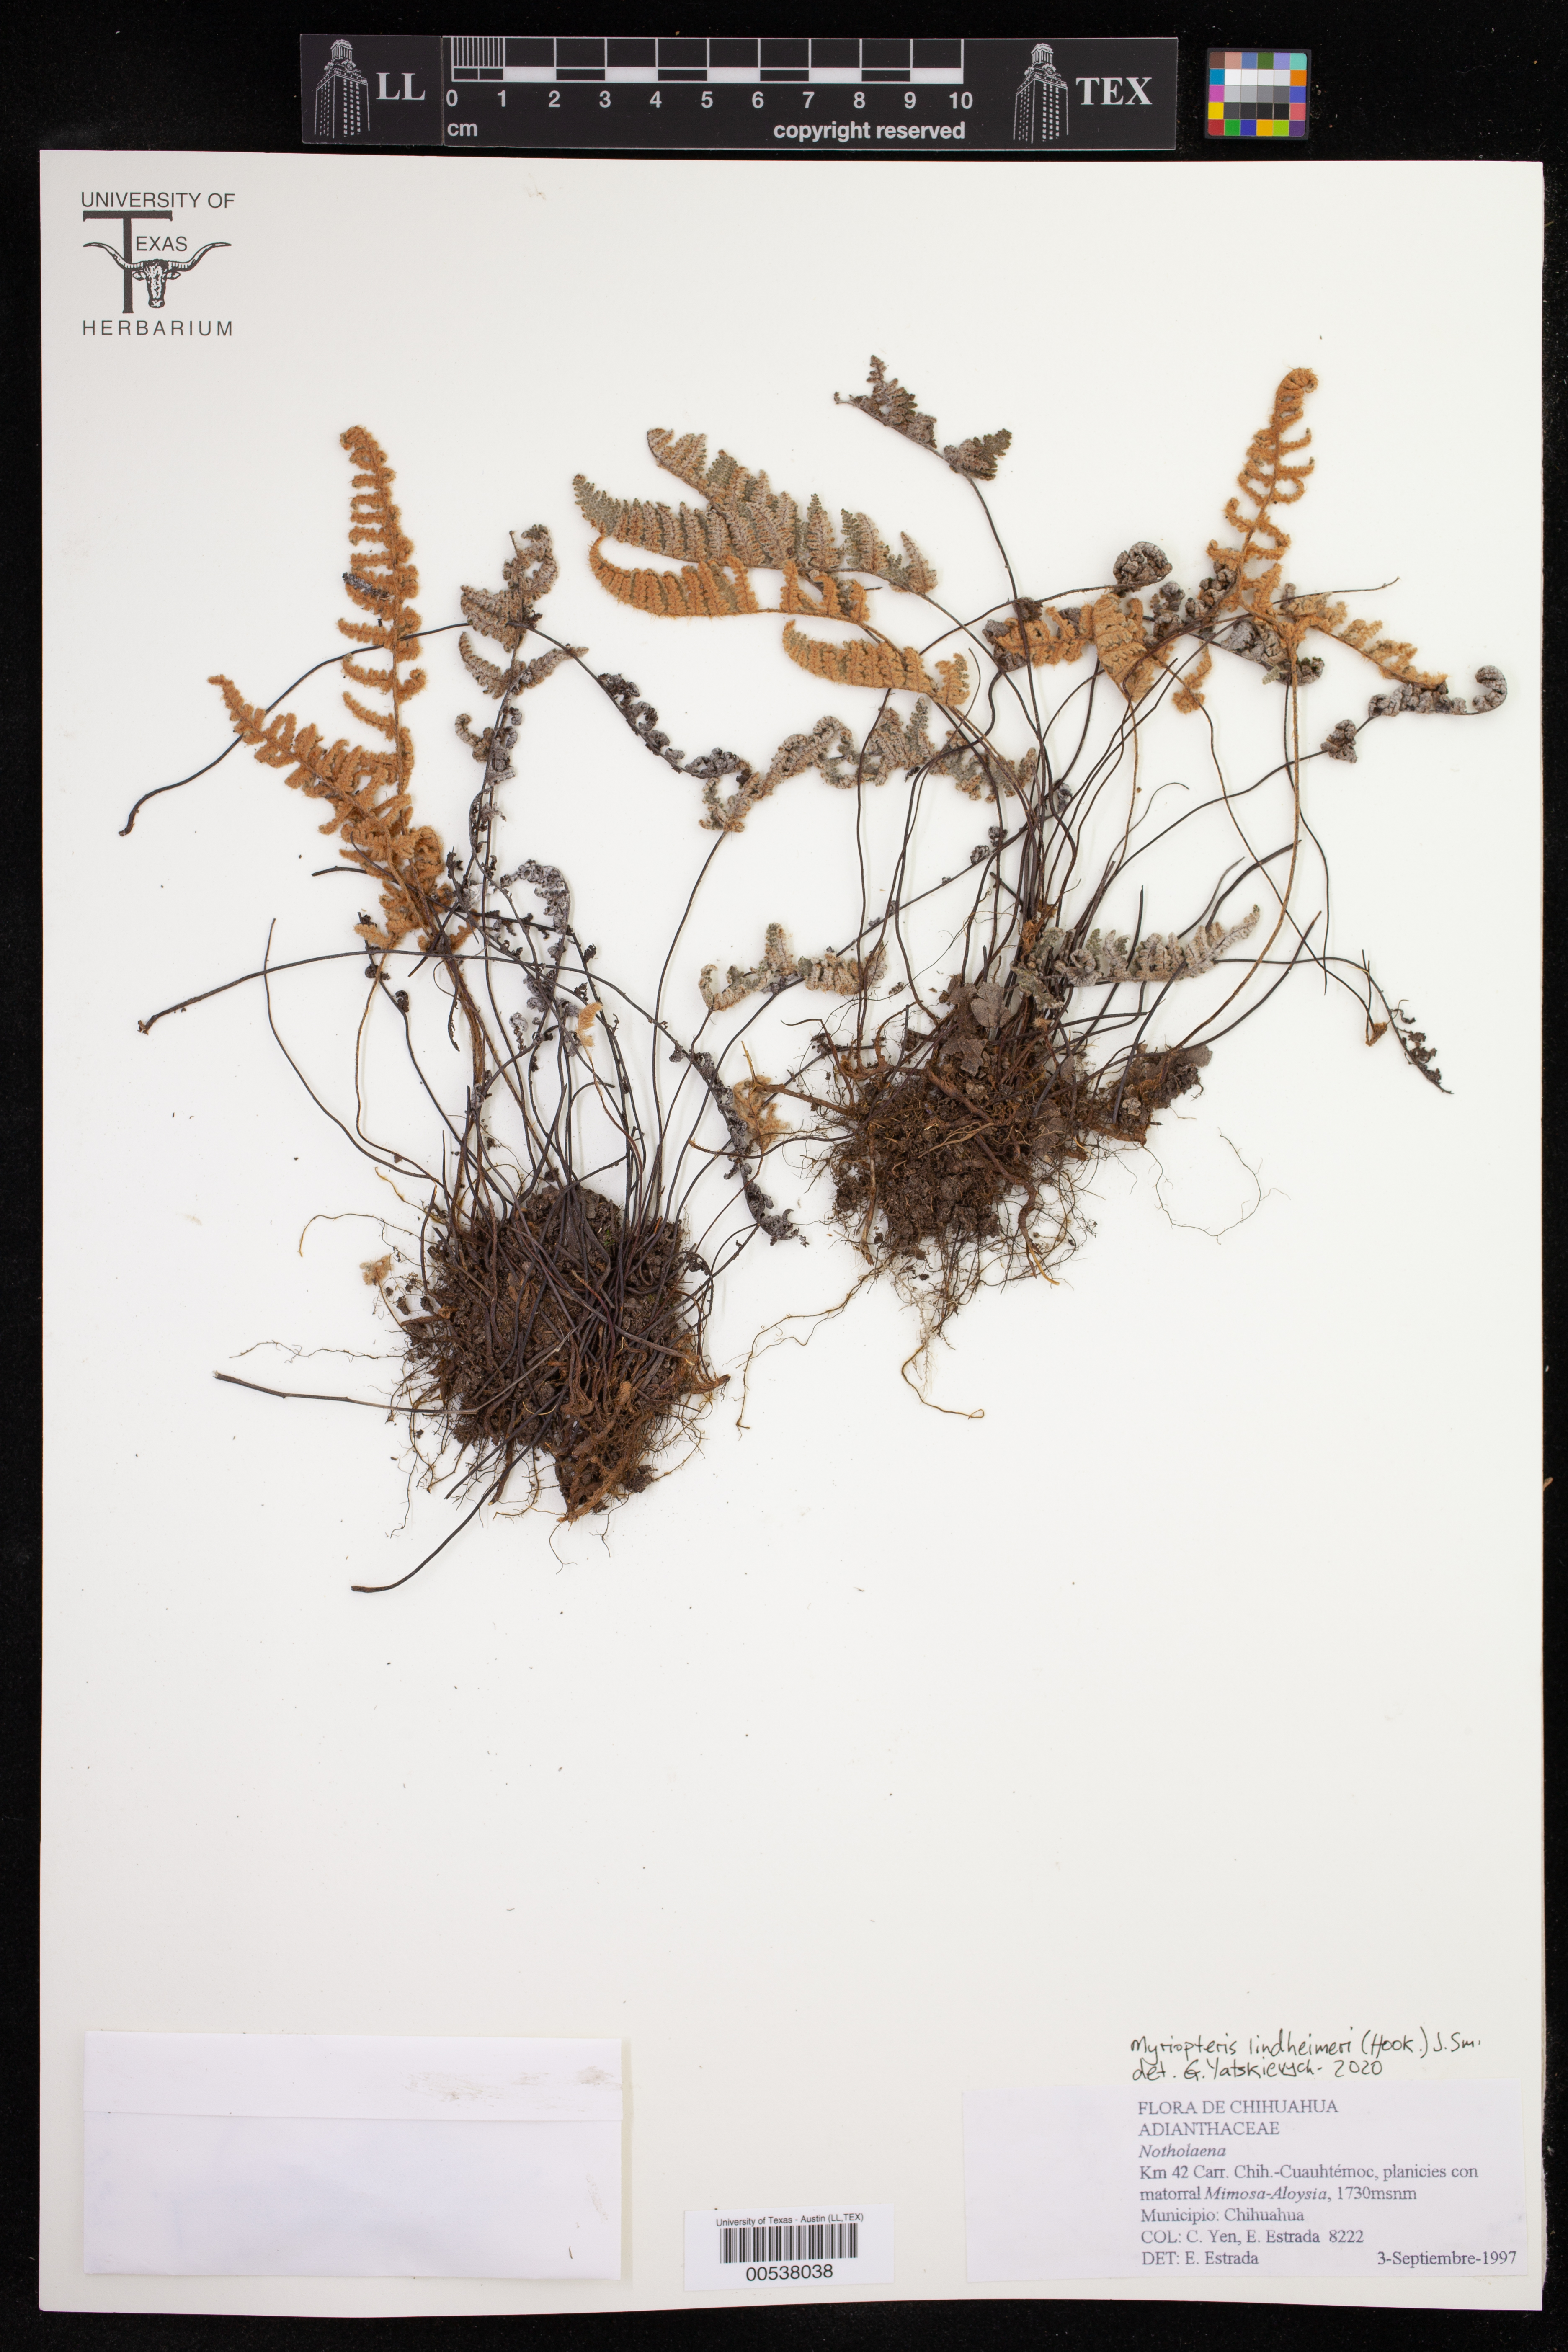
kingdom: Plantae
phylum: Tracheophyta
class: Polypodiopsida
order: Polypodiales
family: Pteridaceae
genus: Myriopteris
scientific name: Myriopteris lindheimeri
